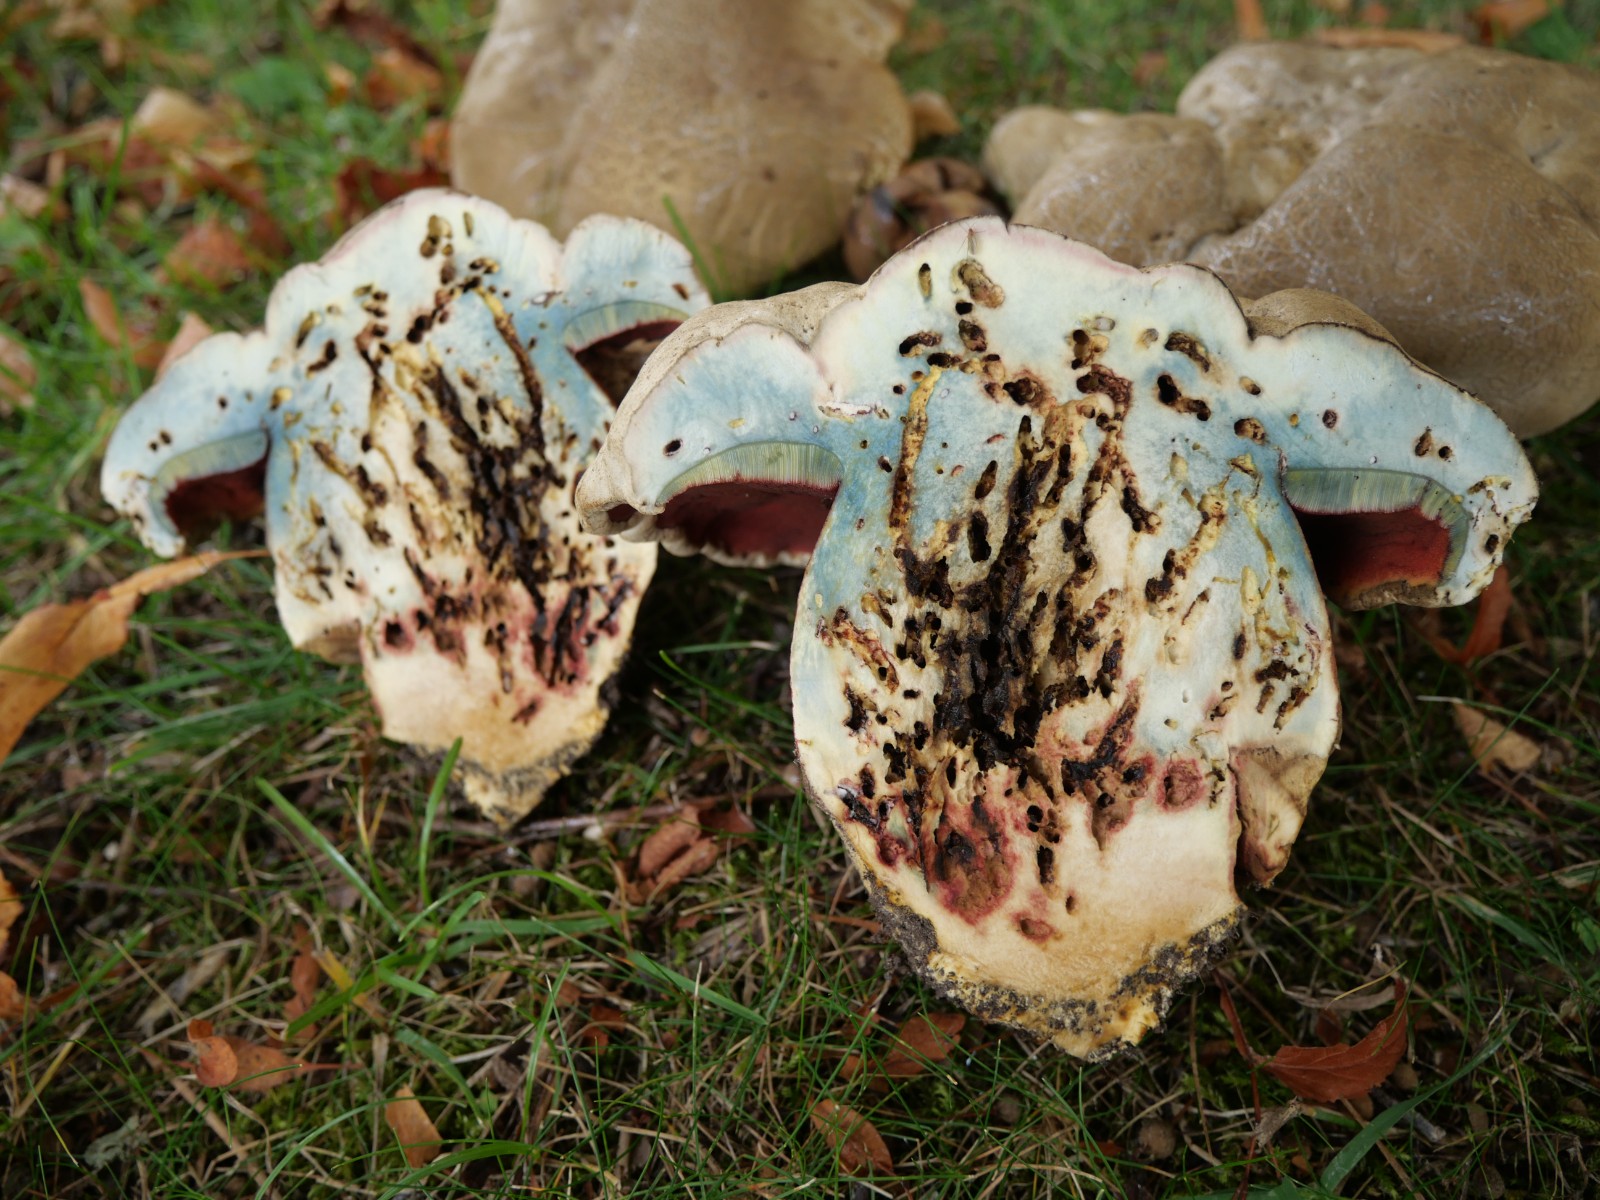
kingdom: Fungi
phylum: Basidiomycota
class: Agaricomycetes
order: Boletales
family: Boletaceae
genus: Rubroboletus
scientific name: Rubroboletus satanas
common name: Satans rørhat
